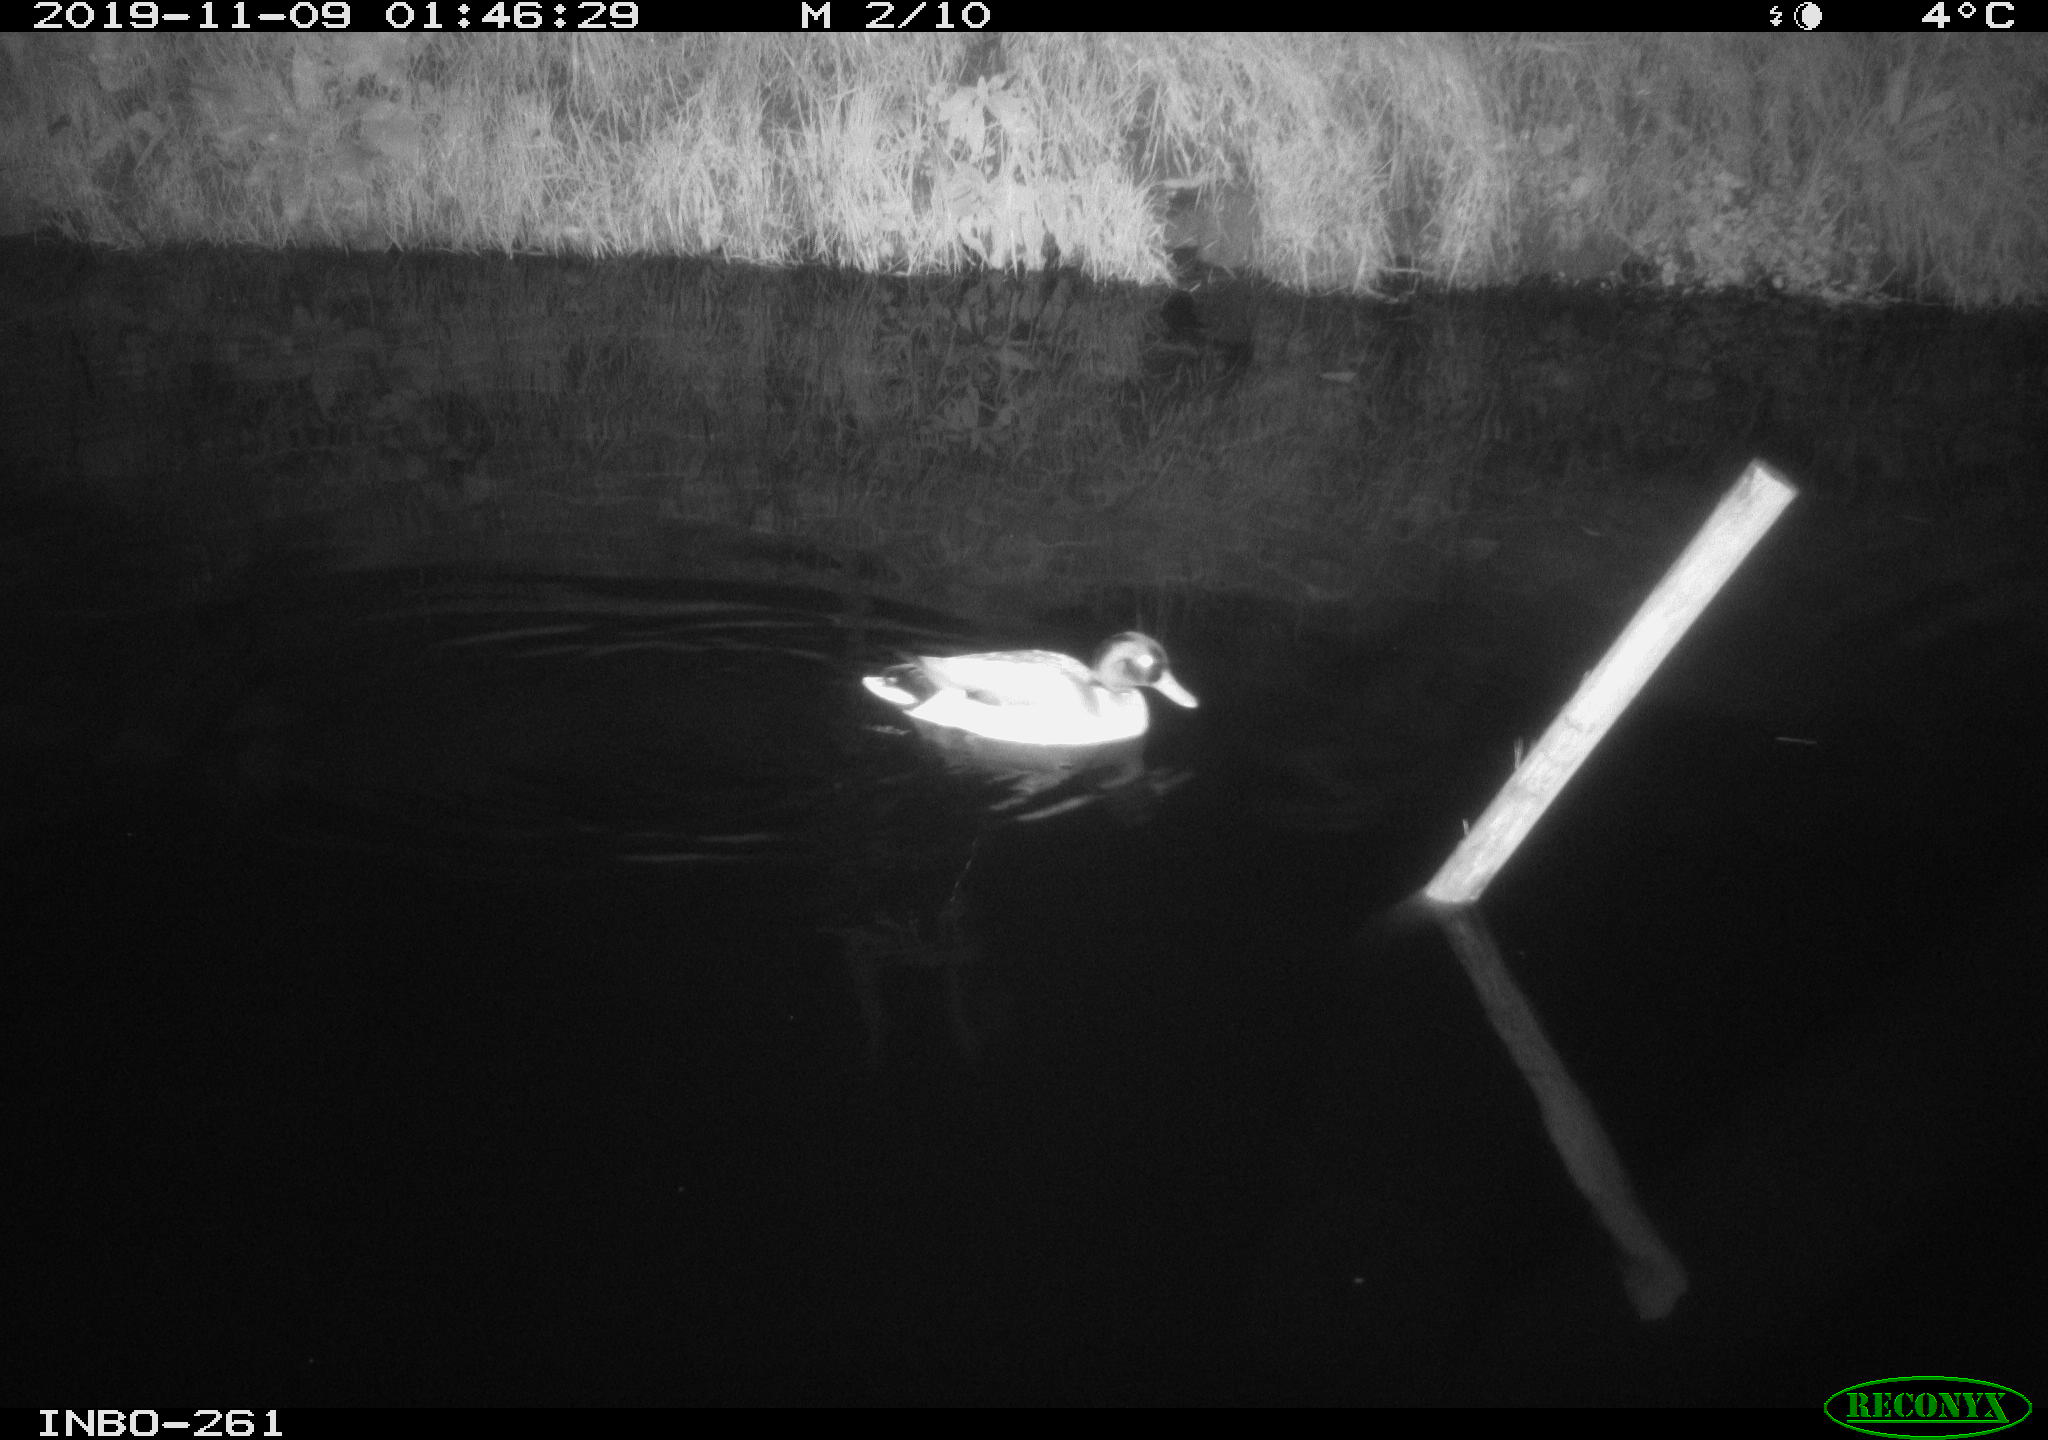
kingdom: Animalia
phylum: Chordata
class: Aves
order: Anseriformes
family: Anatidae
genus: Anas
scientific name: Anas platyrhynchos
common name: Mallard
